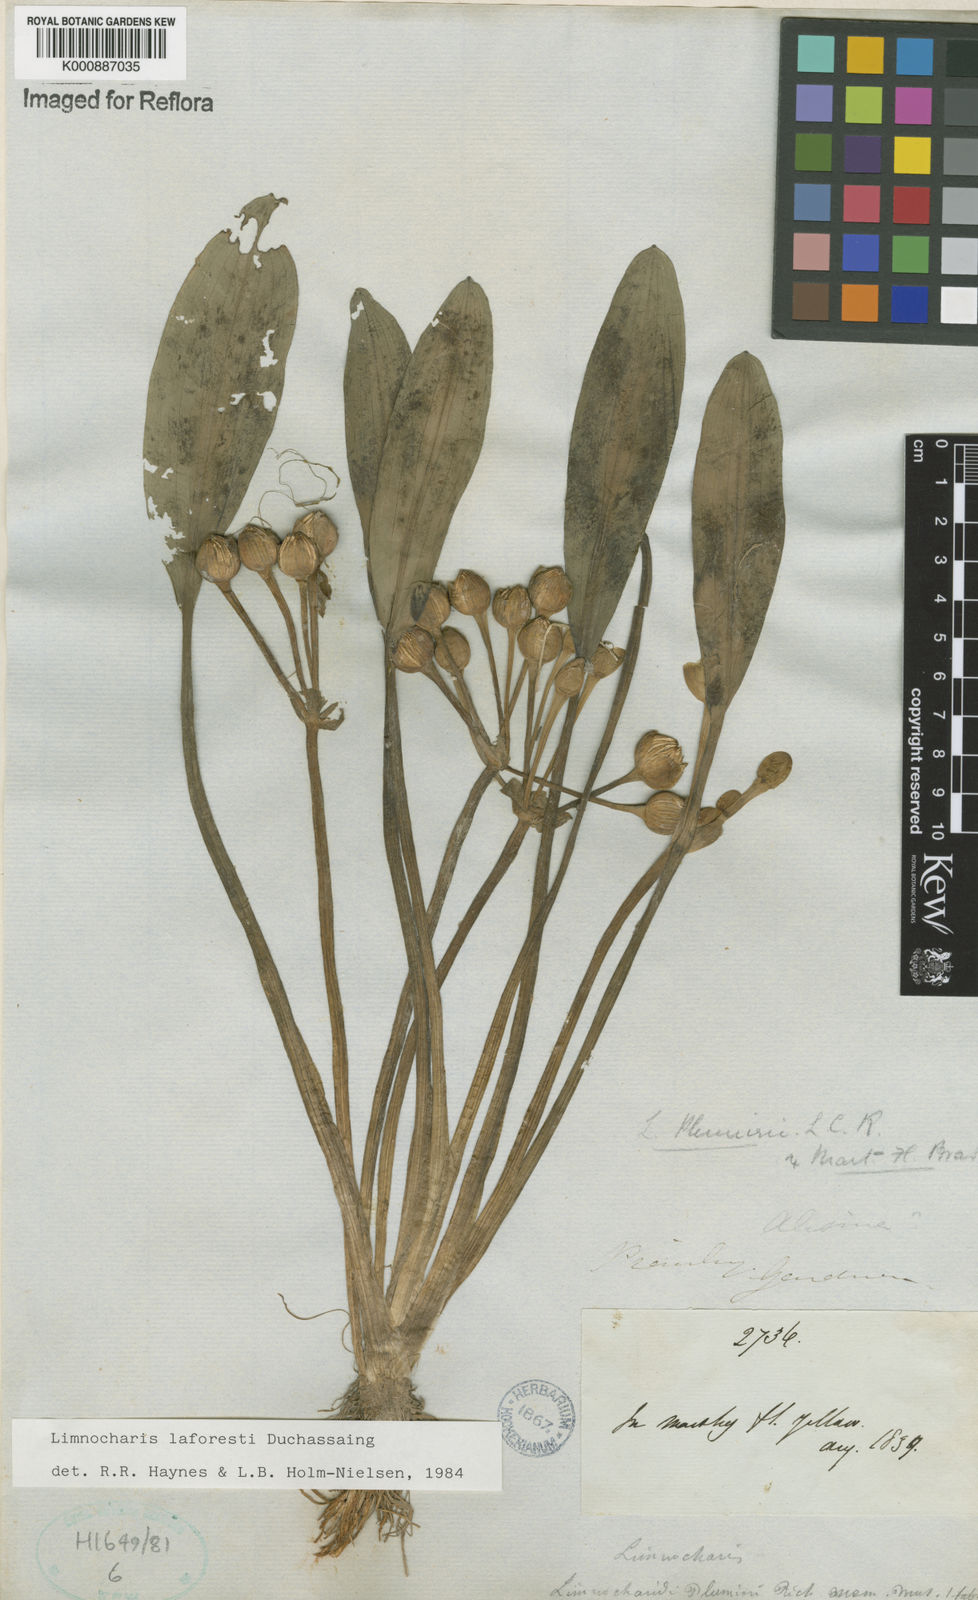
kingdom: Plantae
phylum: Tracheophyta
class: Liliopsida
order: Alismatales
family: Alismataceae
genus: Limnocharis
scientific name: Limnocharis laforestii
